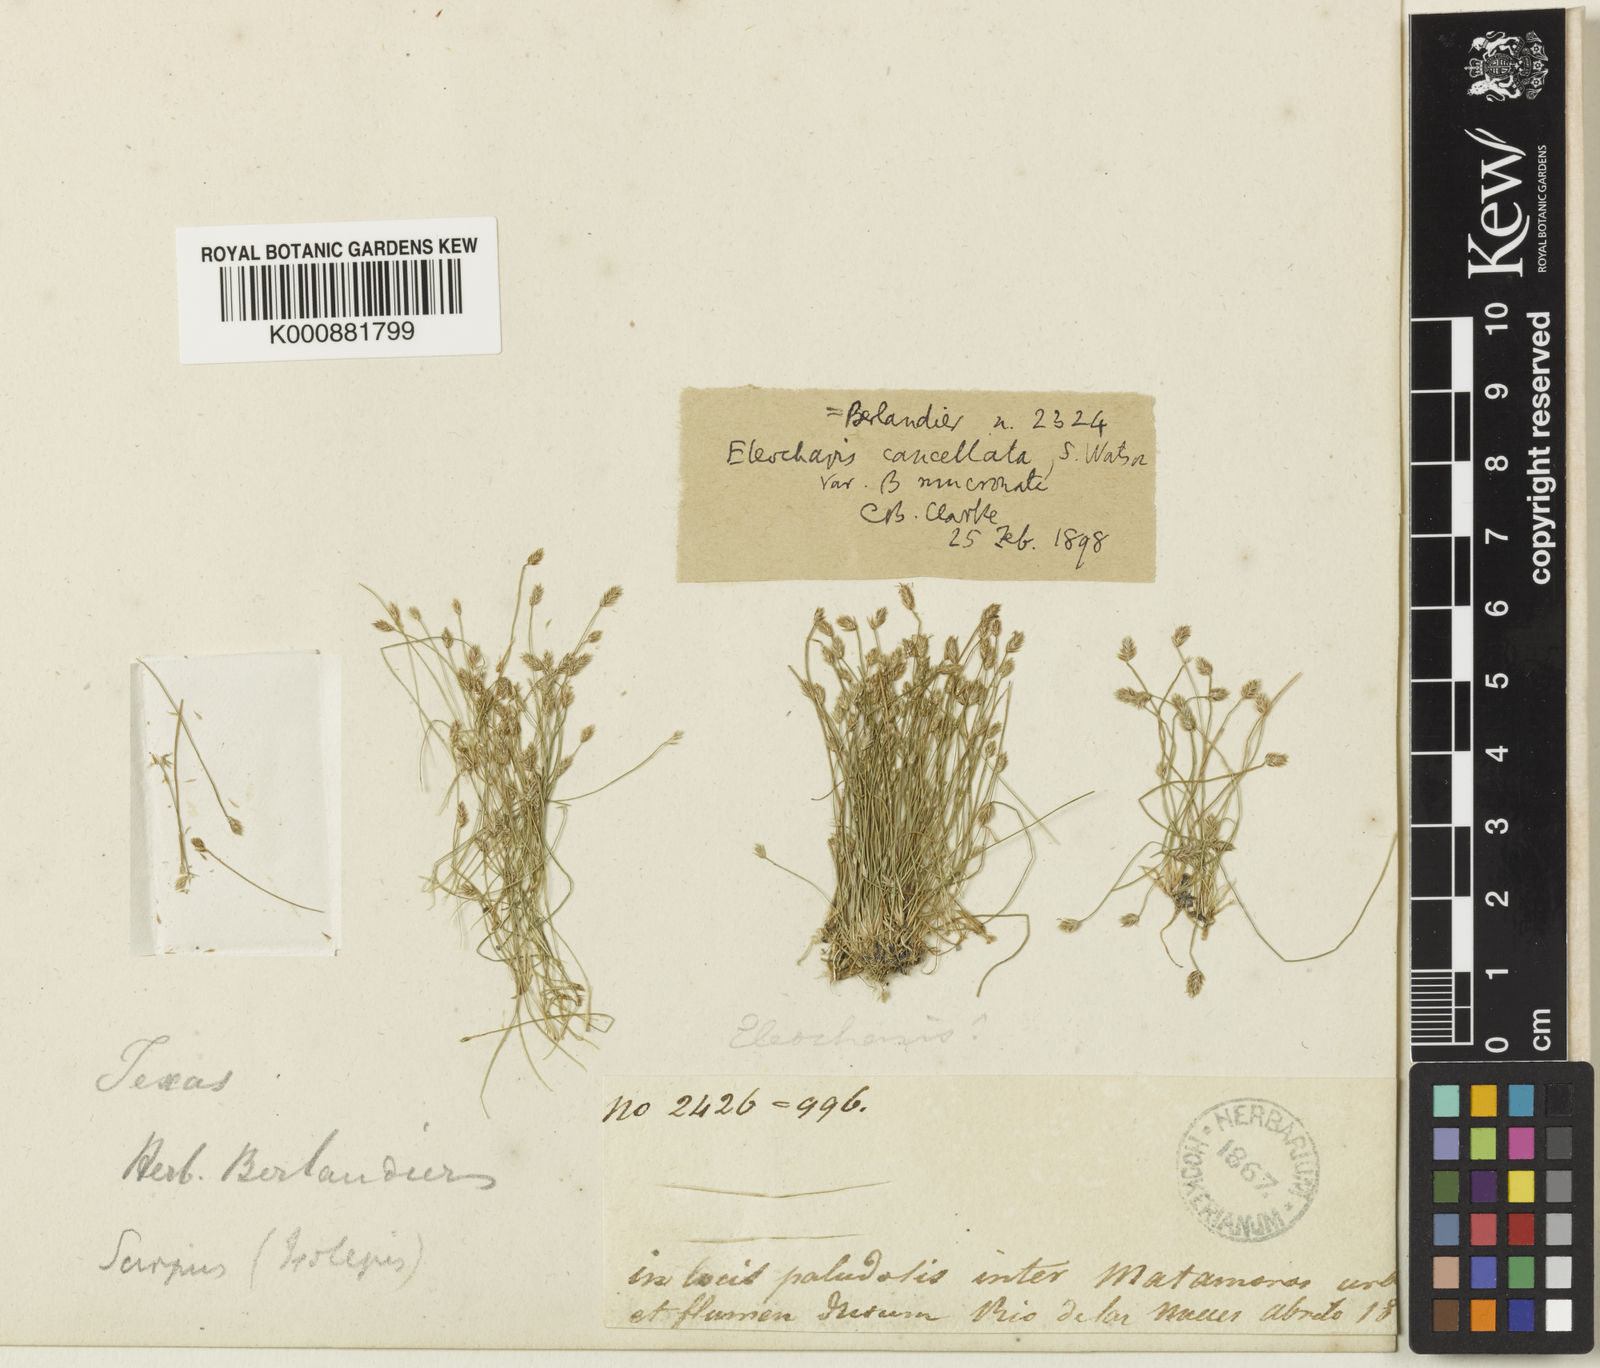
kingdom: Plantae
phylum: Tracheophyta
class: Liliopsida
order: Poales
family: Cyperaceae
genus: Eleocharis
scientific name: Eleocharis cancellata
